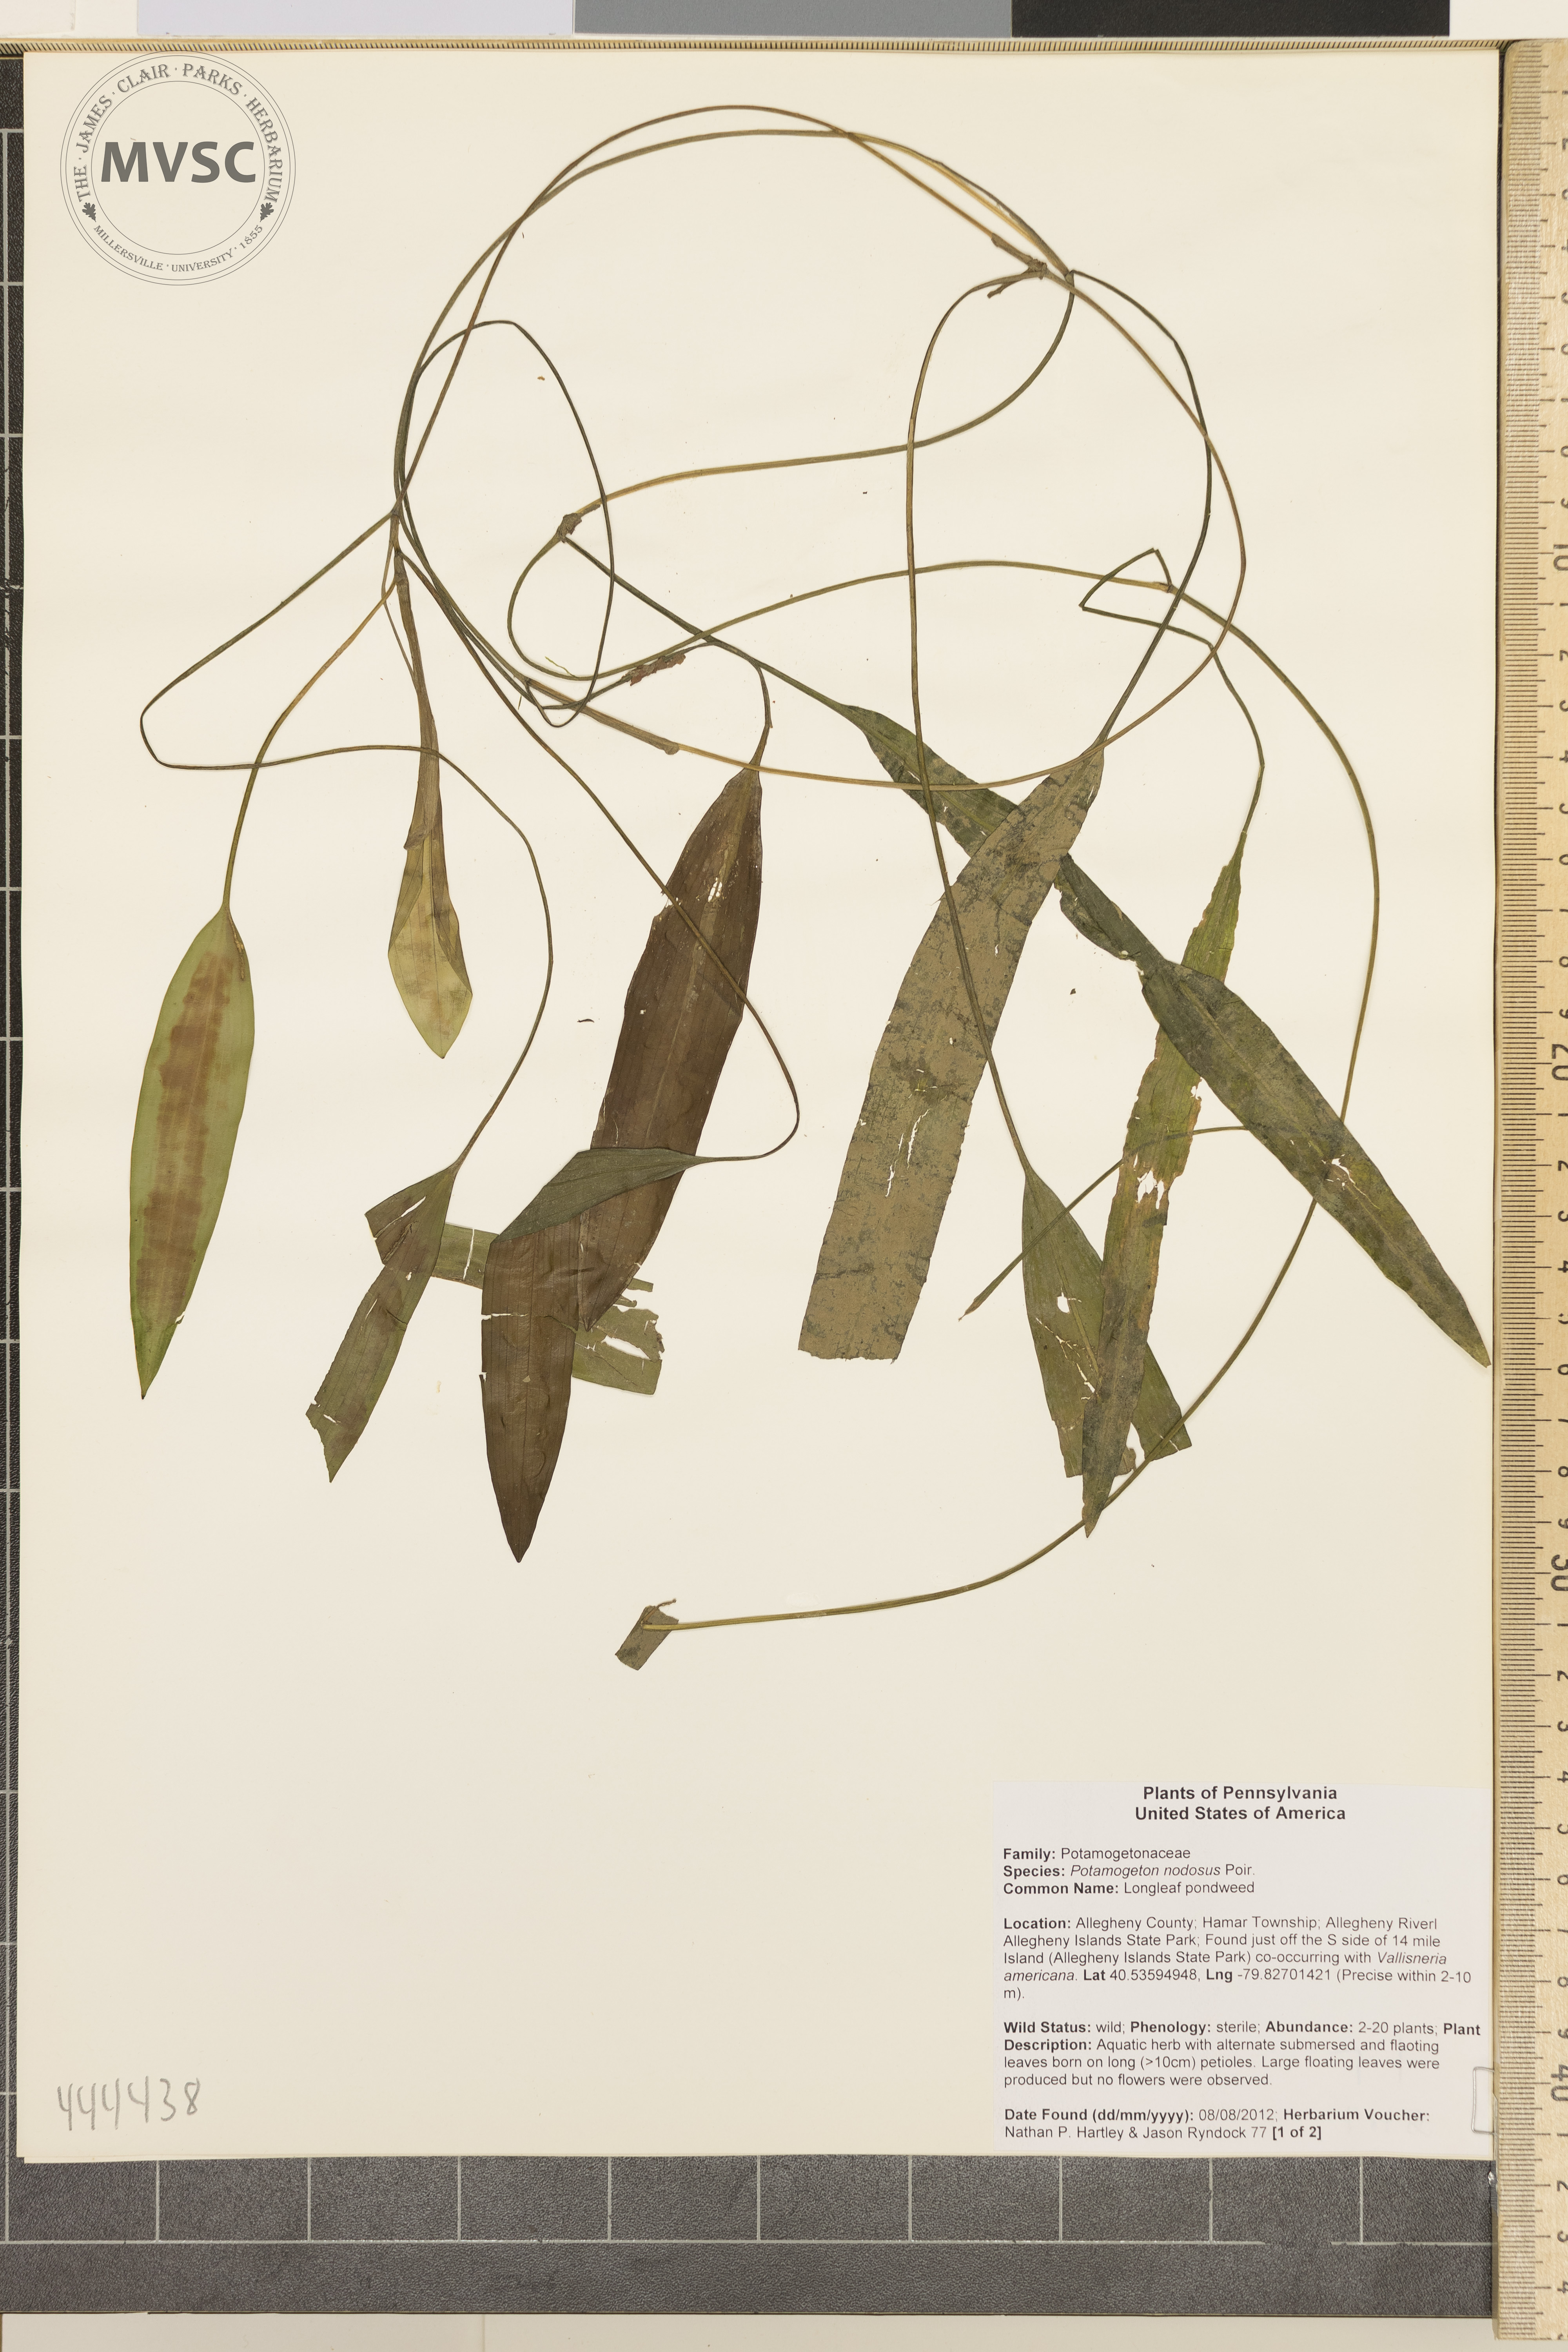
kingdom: Plantae
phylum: Tracheophyta
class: Liliopsida
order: Alismatales
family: Potamogetonaceae
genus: Potamogeton
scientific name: Potamogeton nodosus
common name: Longleaf pondweed
